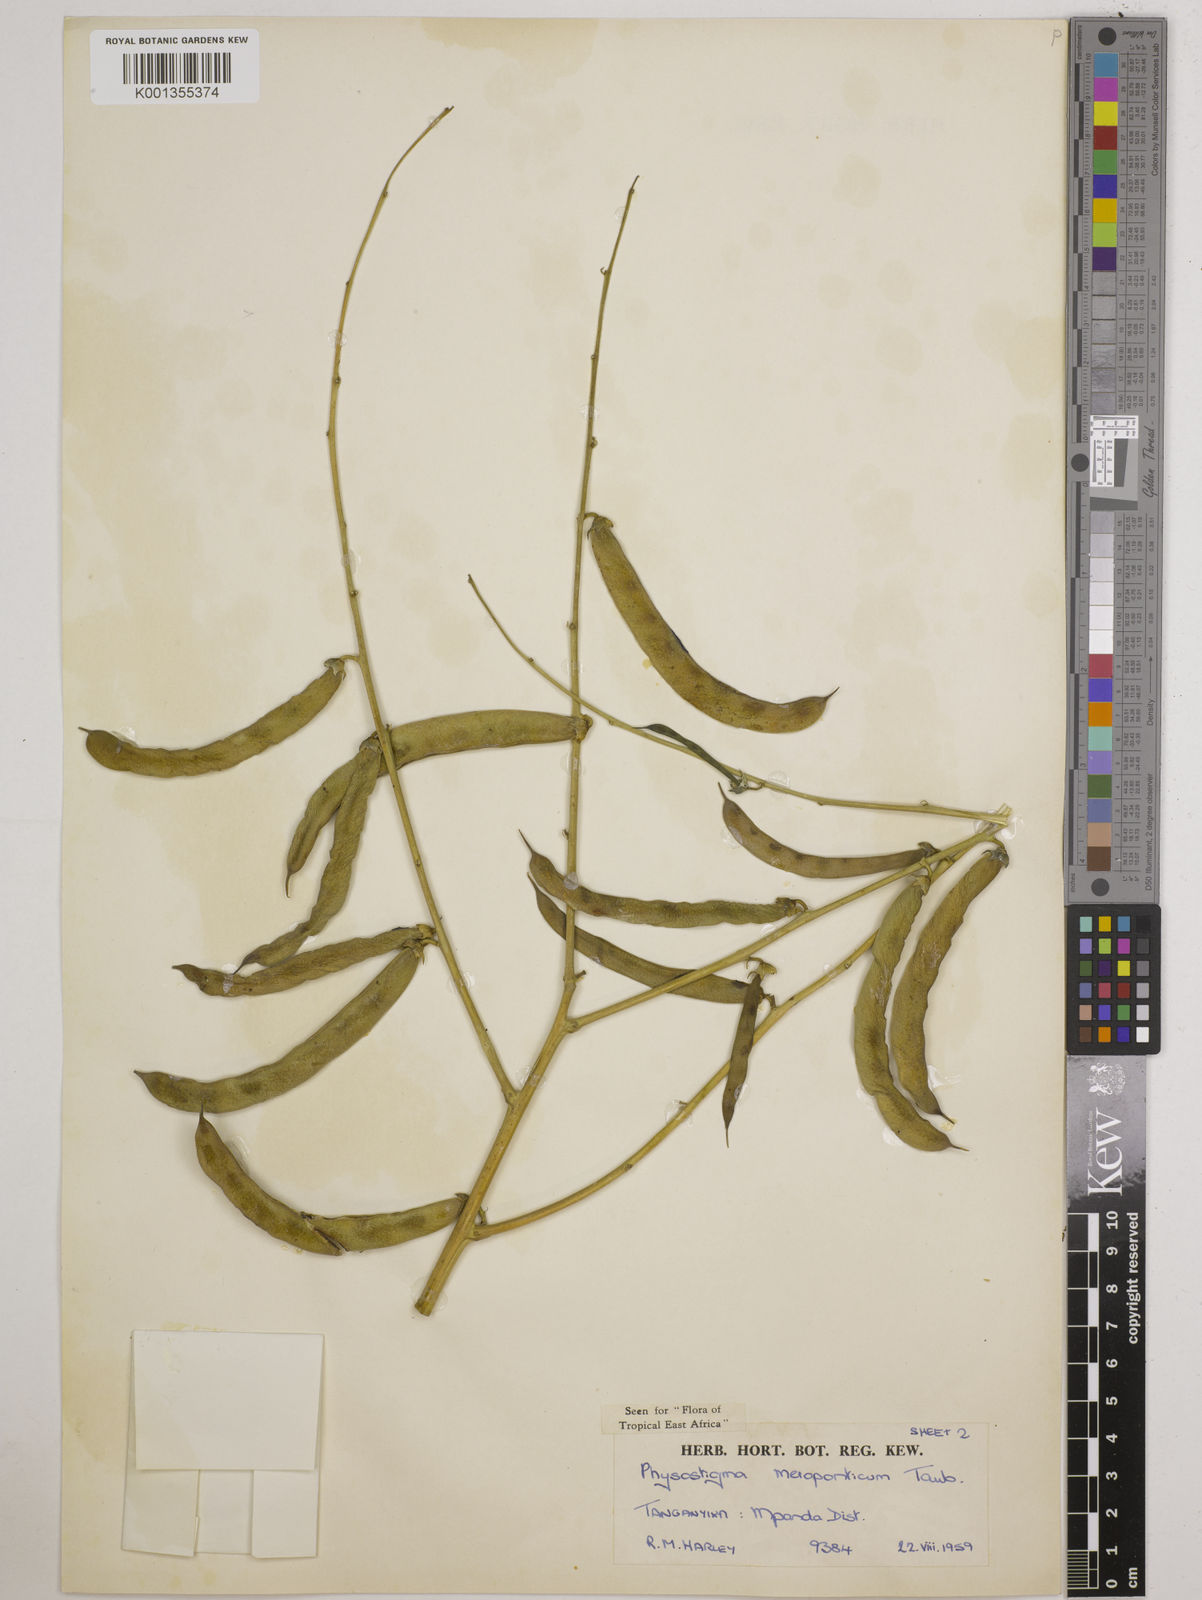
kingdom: Plantae
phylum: Tracheophyta
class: Magnoliopsida
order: Fabales
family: Fabaceae
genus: Physostigma
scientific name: Physostigma mesoponticum
